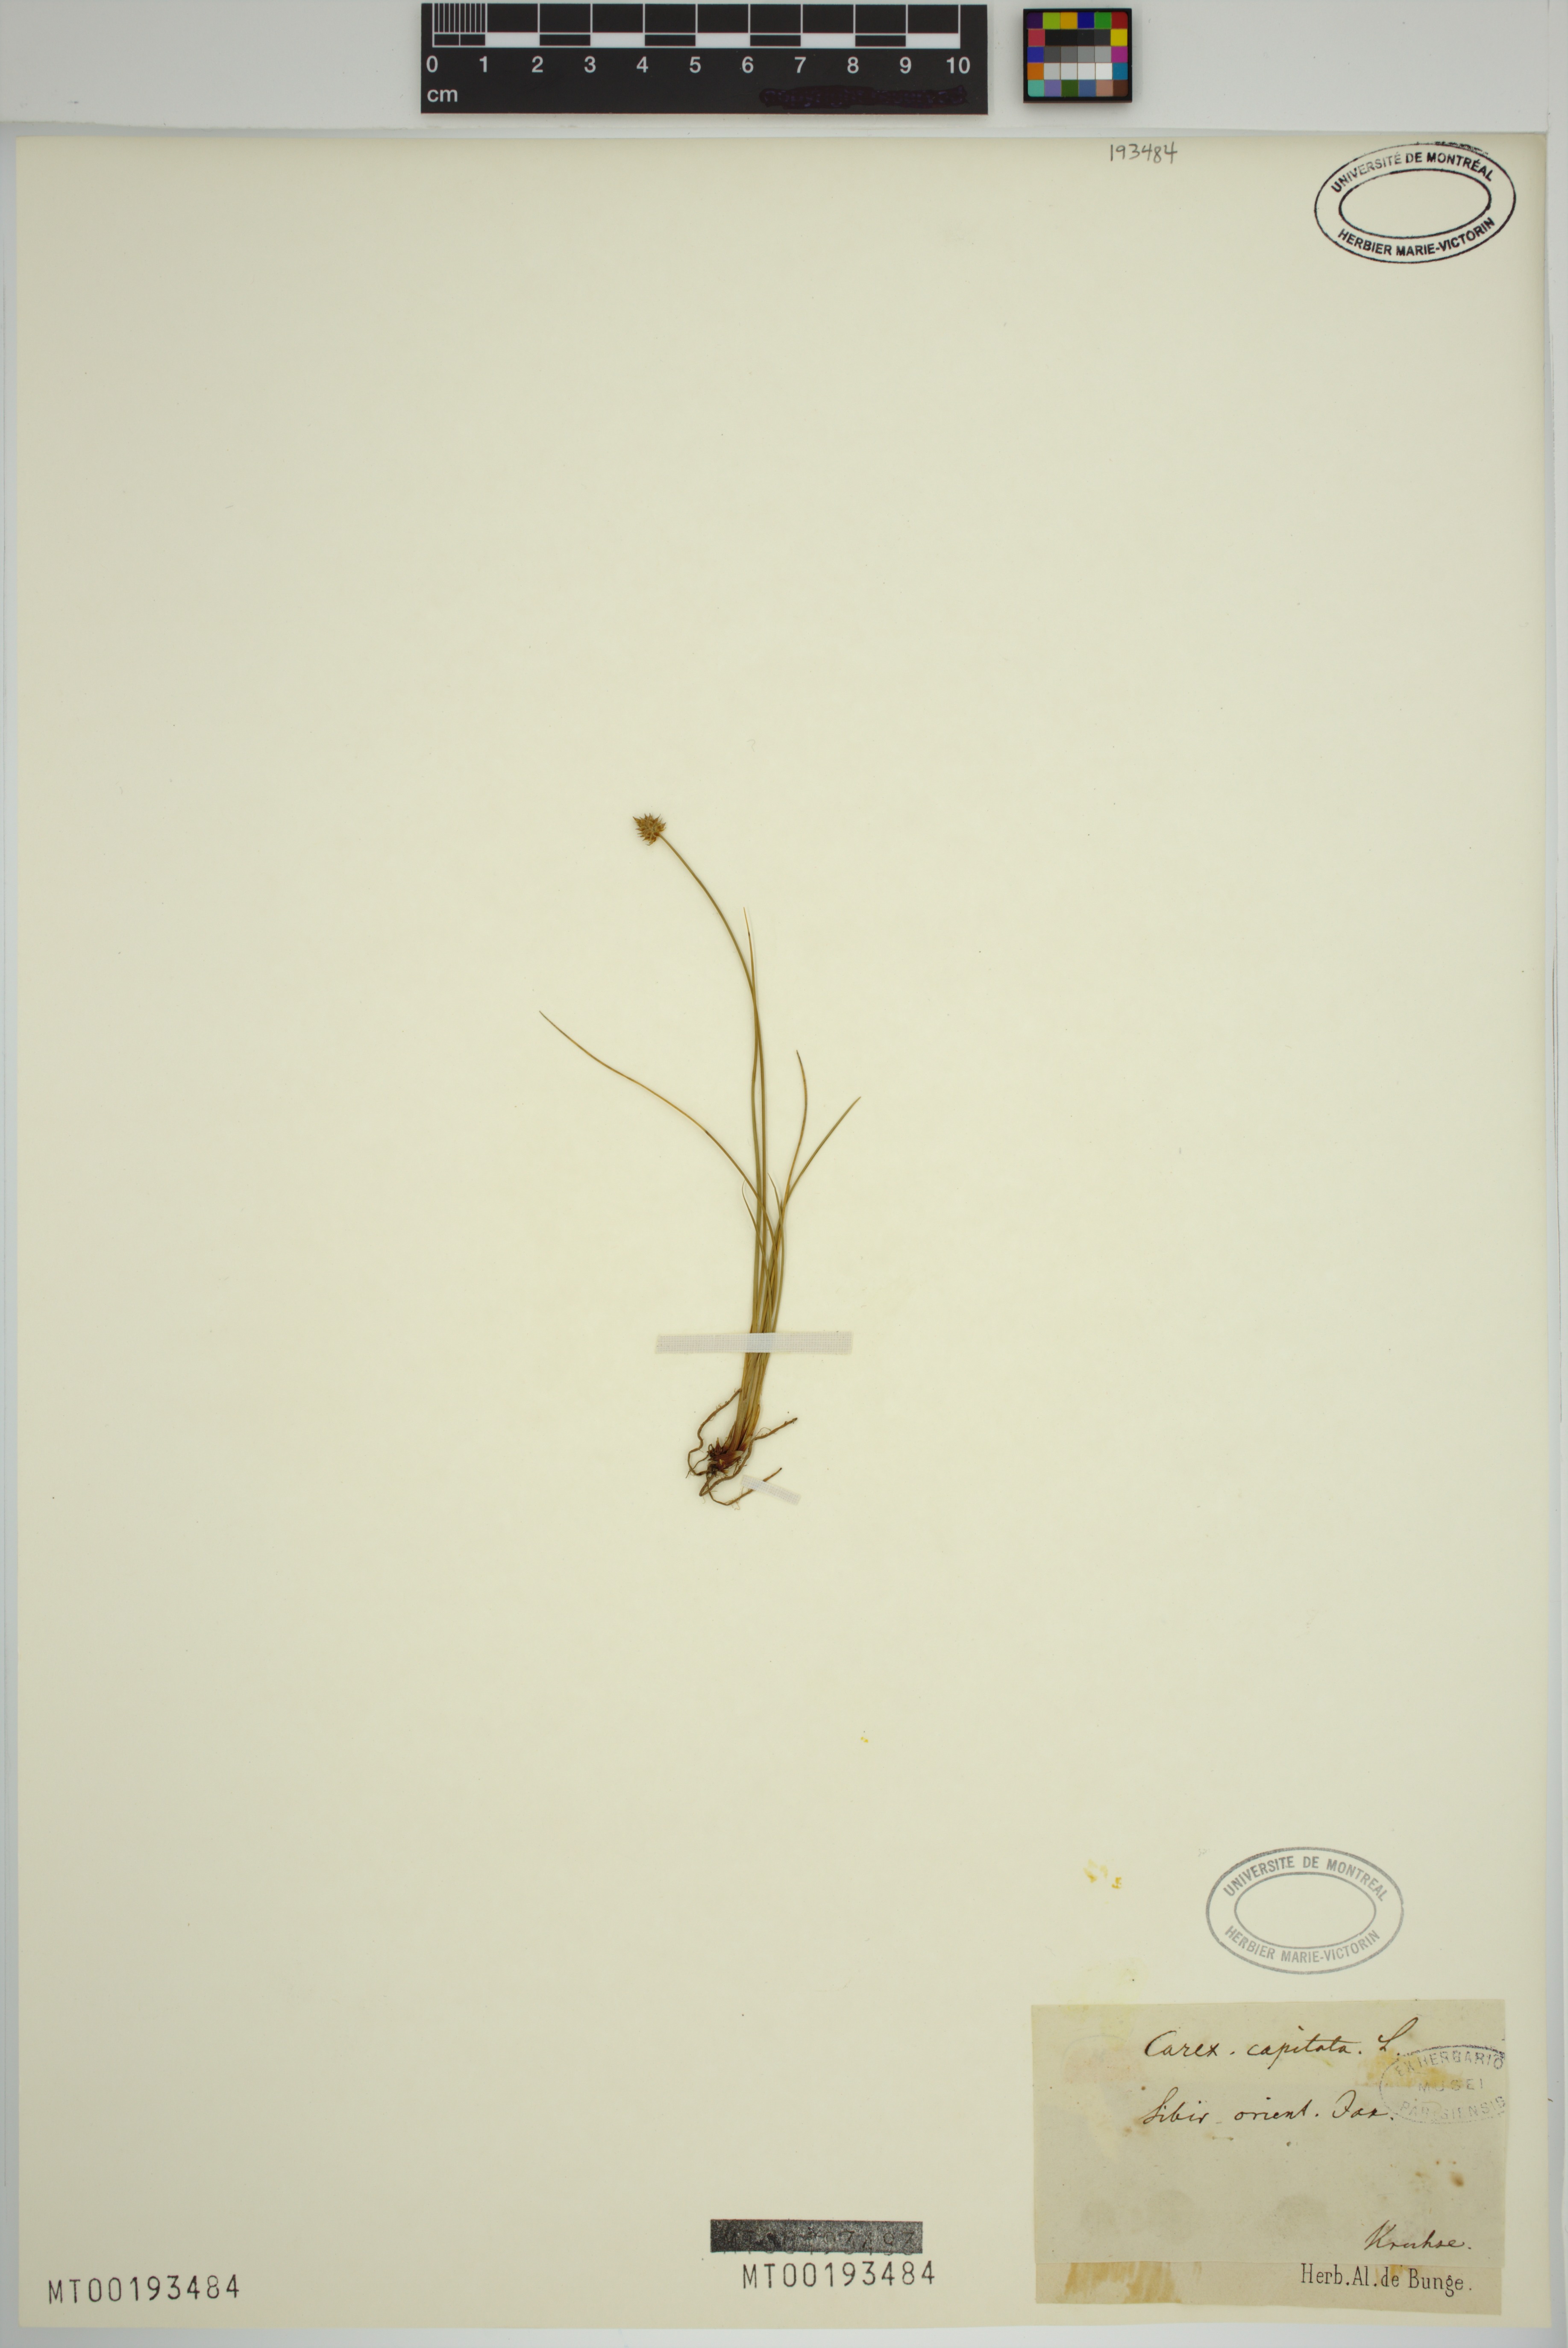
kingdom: Plantae
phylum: Tracheophyta
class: Liliopsida
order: Poales
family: Cyperaceae
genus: Carex
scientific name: Carex capitata
